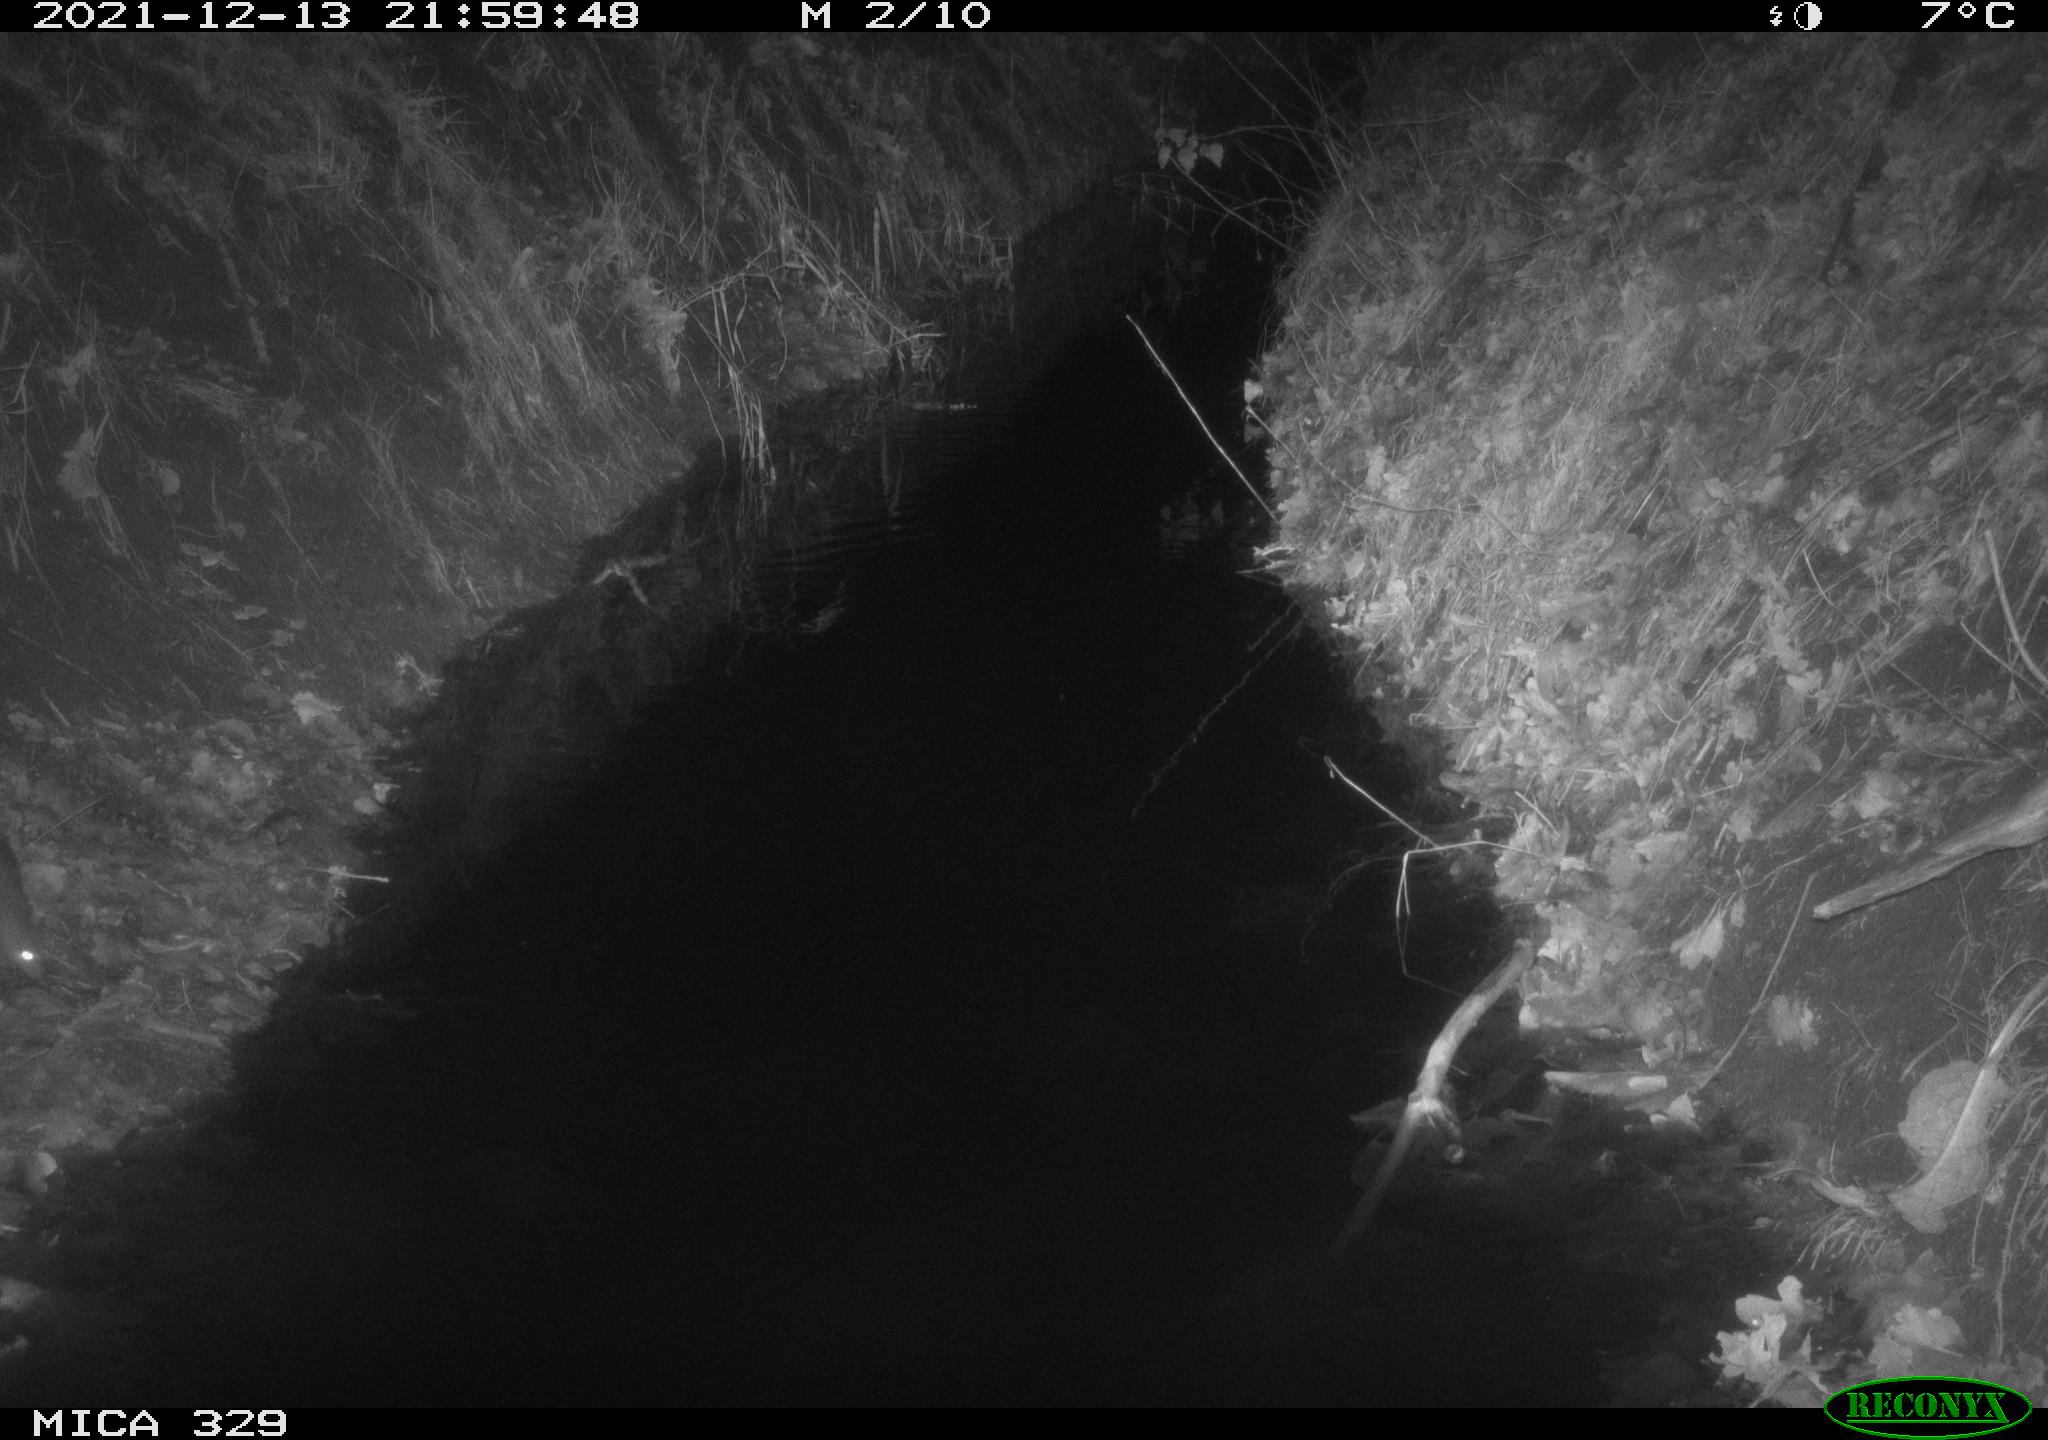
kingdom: Animalia
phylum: Chordata
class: Mammalia
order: Rodentia
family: Muridae
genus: Rattus
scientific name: Rattus norvegicus
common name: Brown rat
